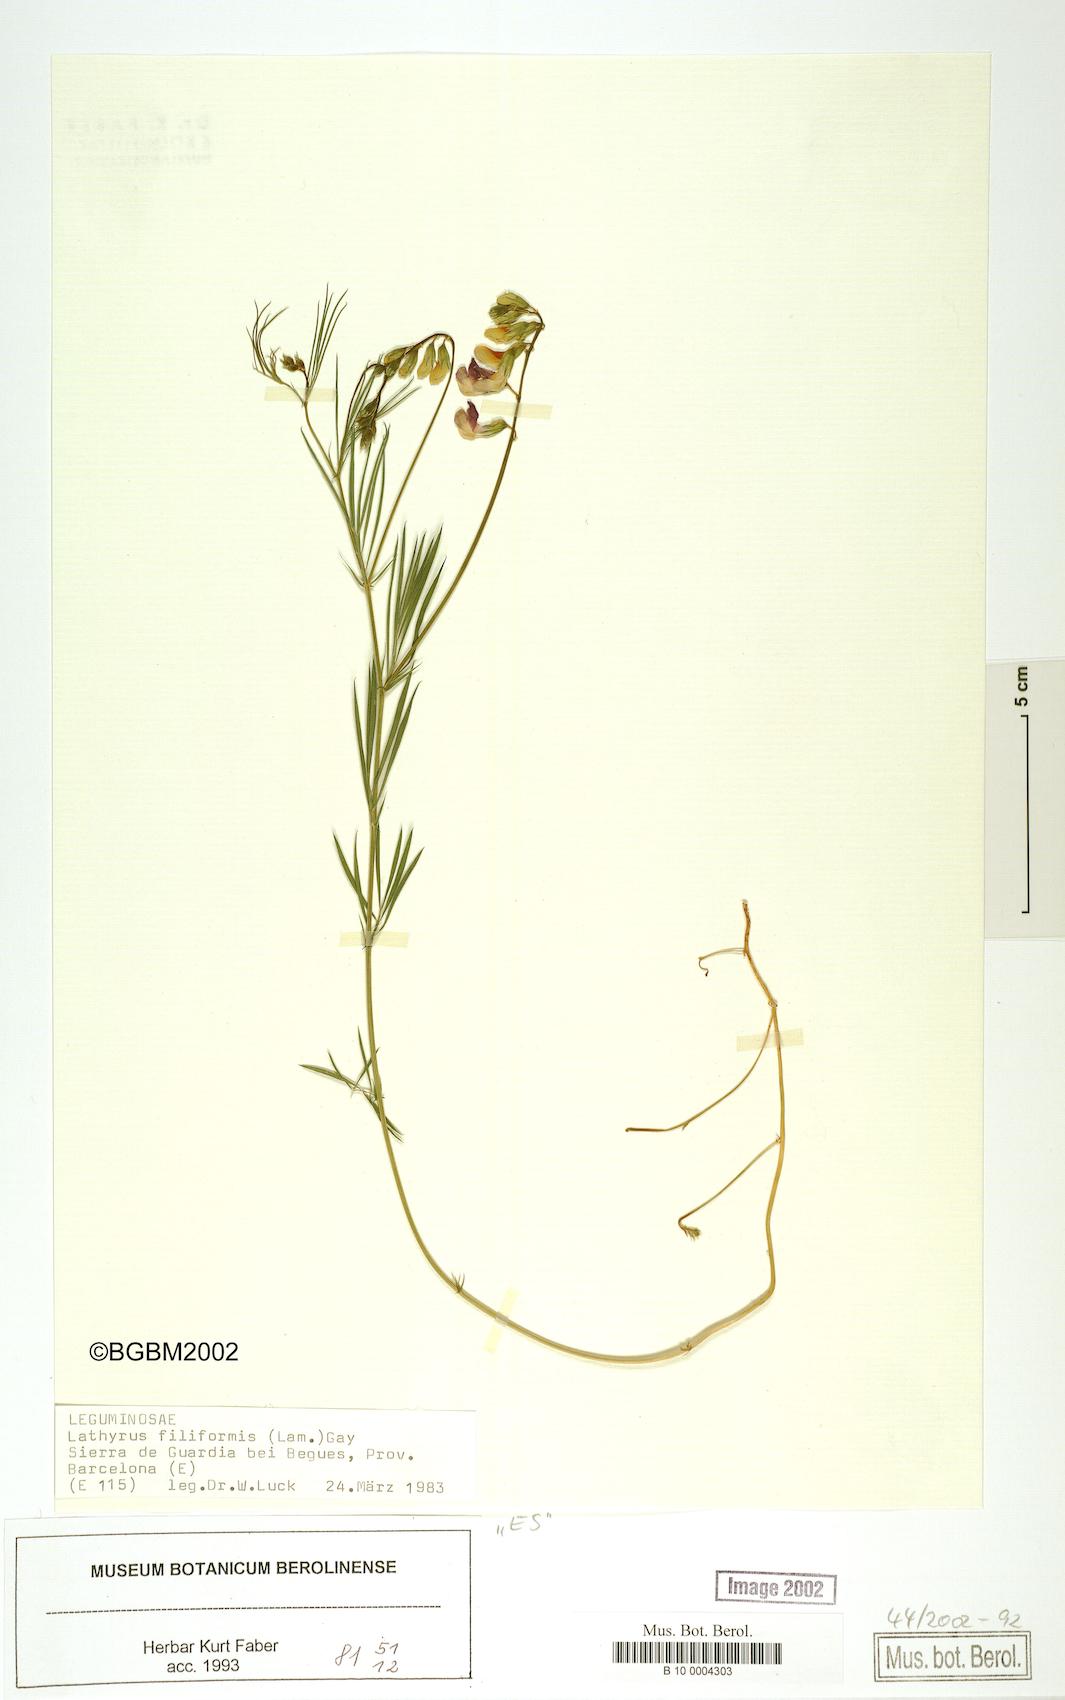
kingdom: Plantae
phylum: Tracheophyta
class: Magnoliopsida
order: Fabales
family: Fabaceae
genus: Lathyrus
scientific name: Lathyrus filiformis
